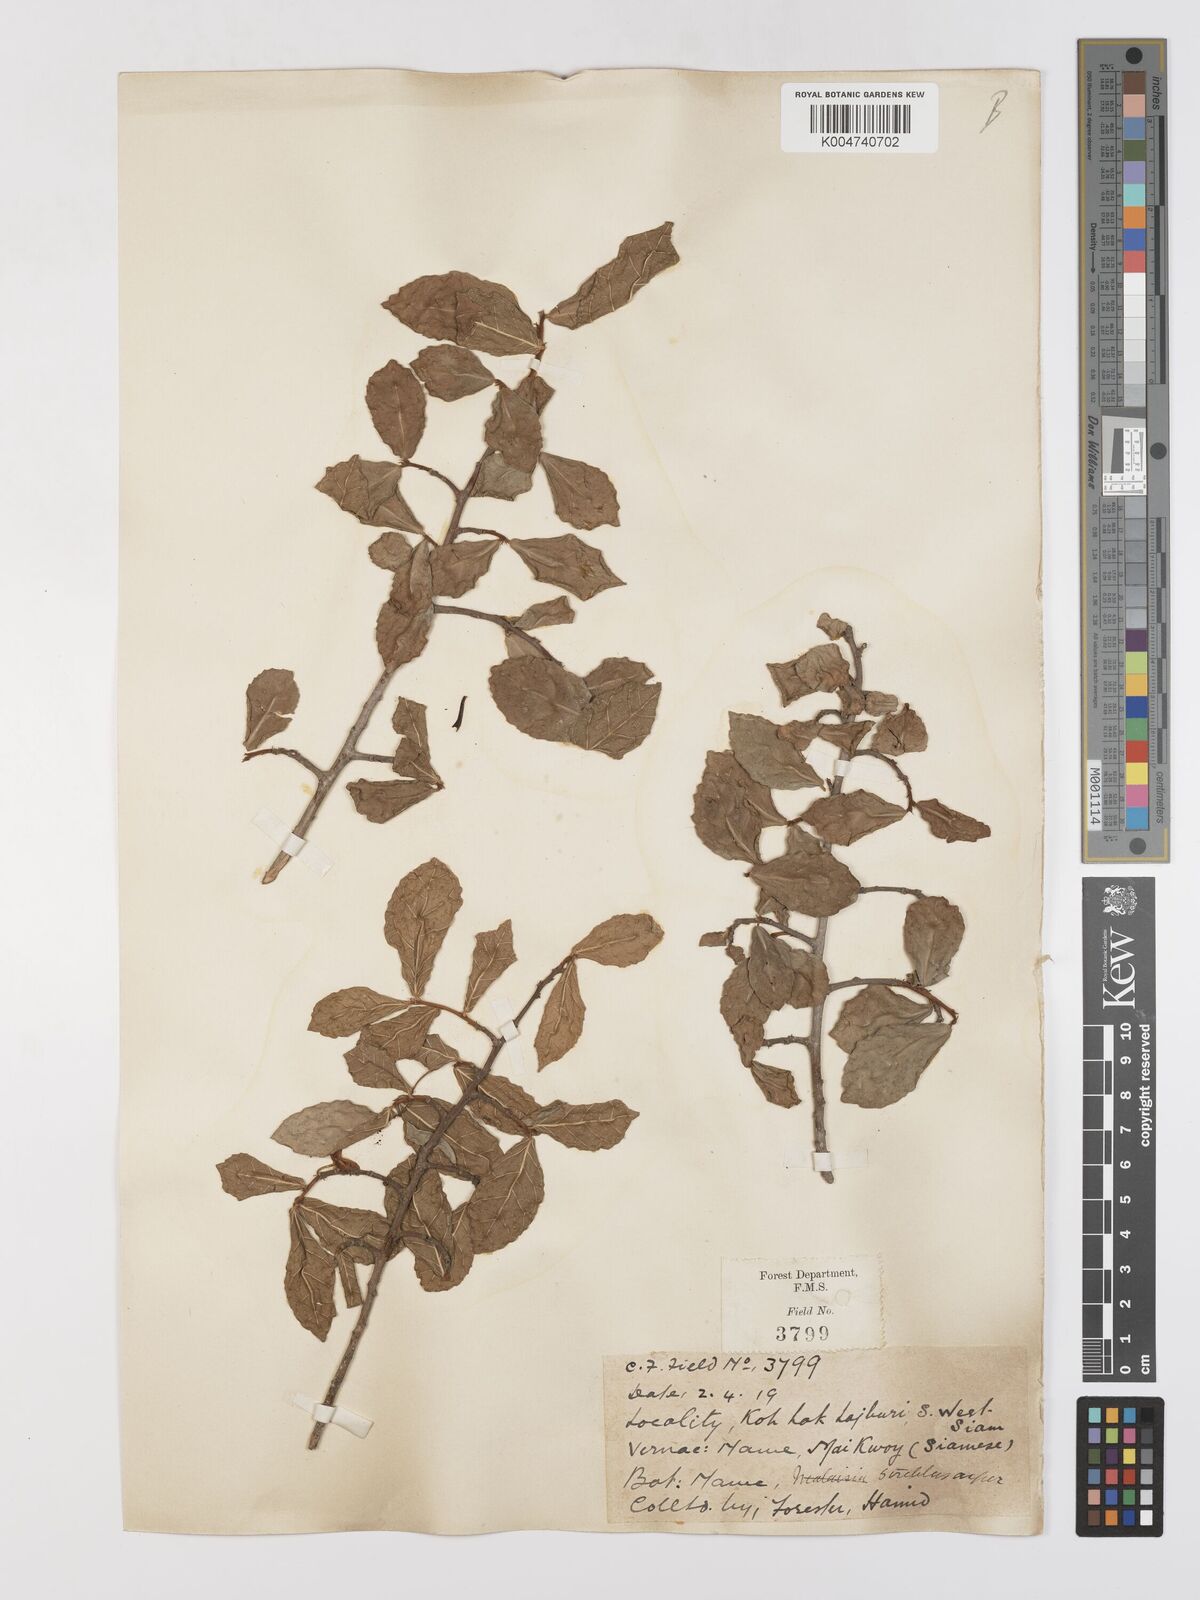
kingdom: Plantae
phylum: Tracheophyta
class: Magnoliopsida
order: Rosales
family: Moraceae
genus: Streblus
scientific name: Streblus asper
